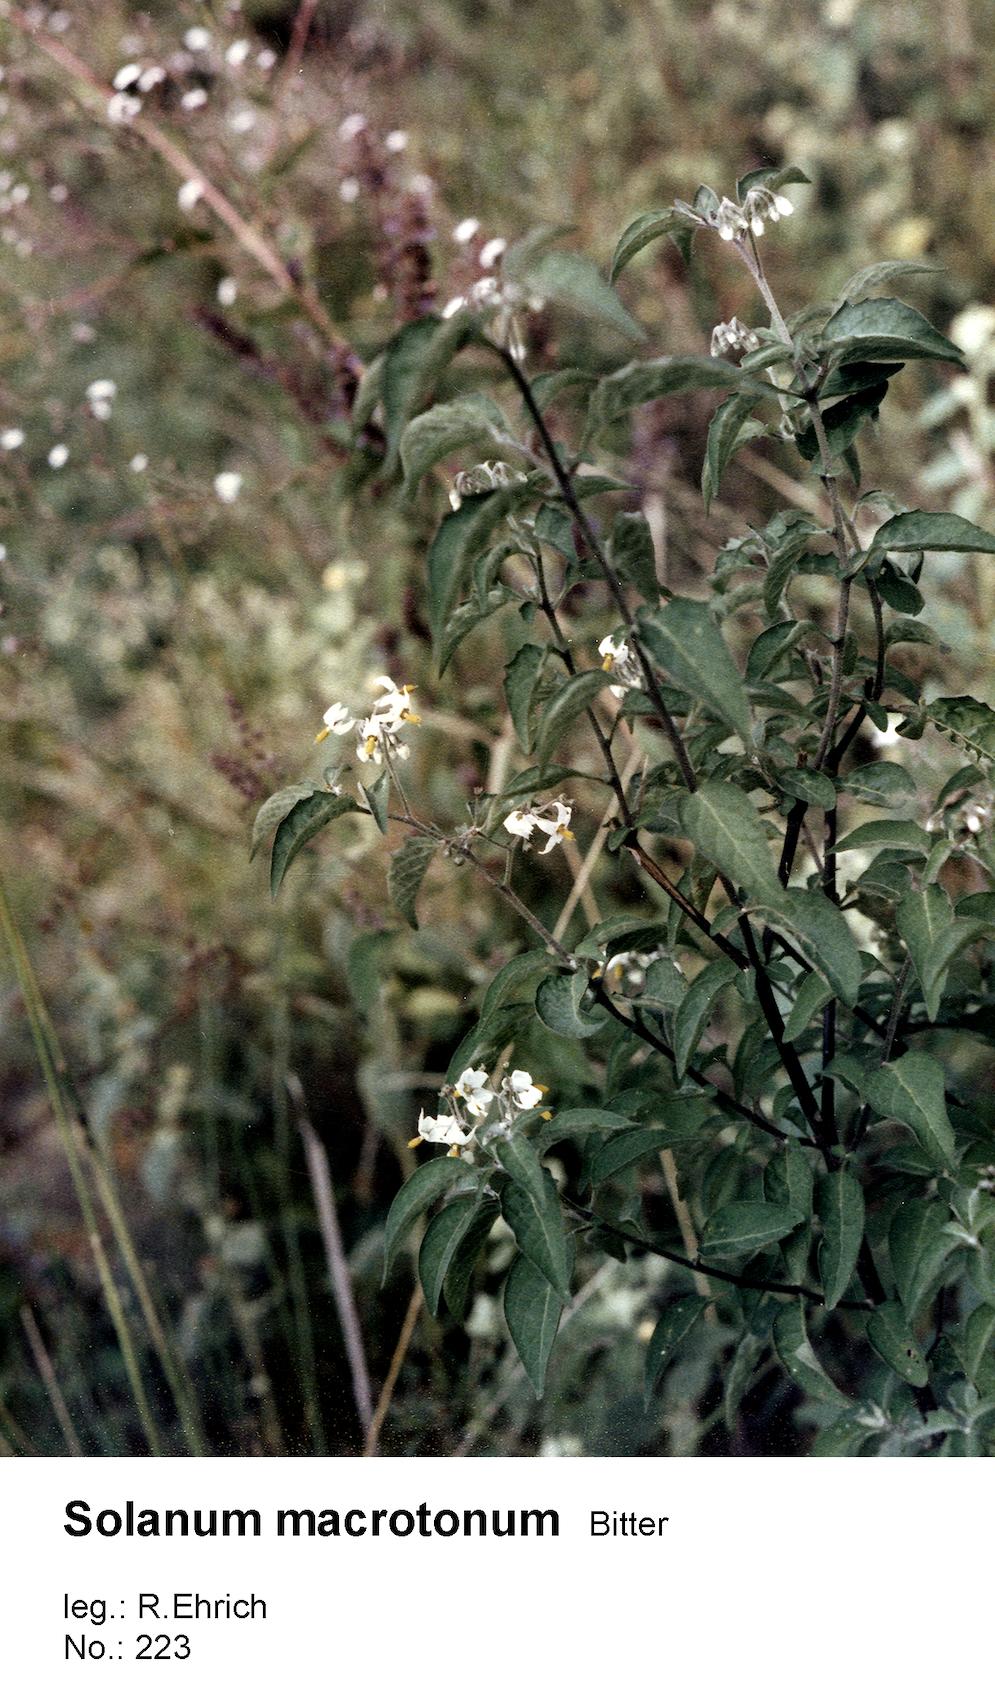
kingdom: Plantae
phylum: Tracheophyta
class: Magnoliopsida
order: Solanales
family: Solanaceae
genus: Solanum
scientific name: Solanum macrotonum
